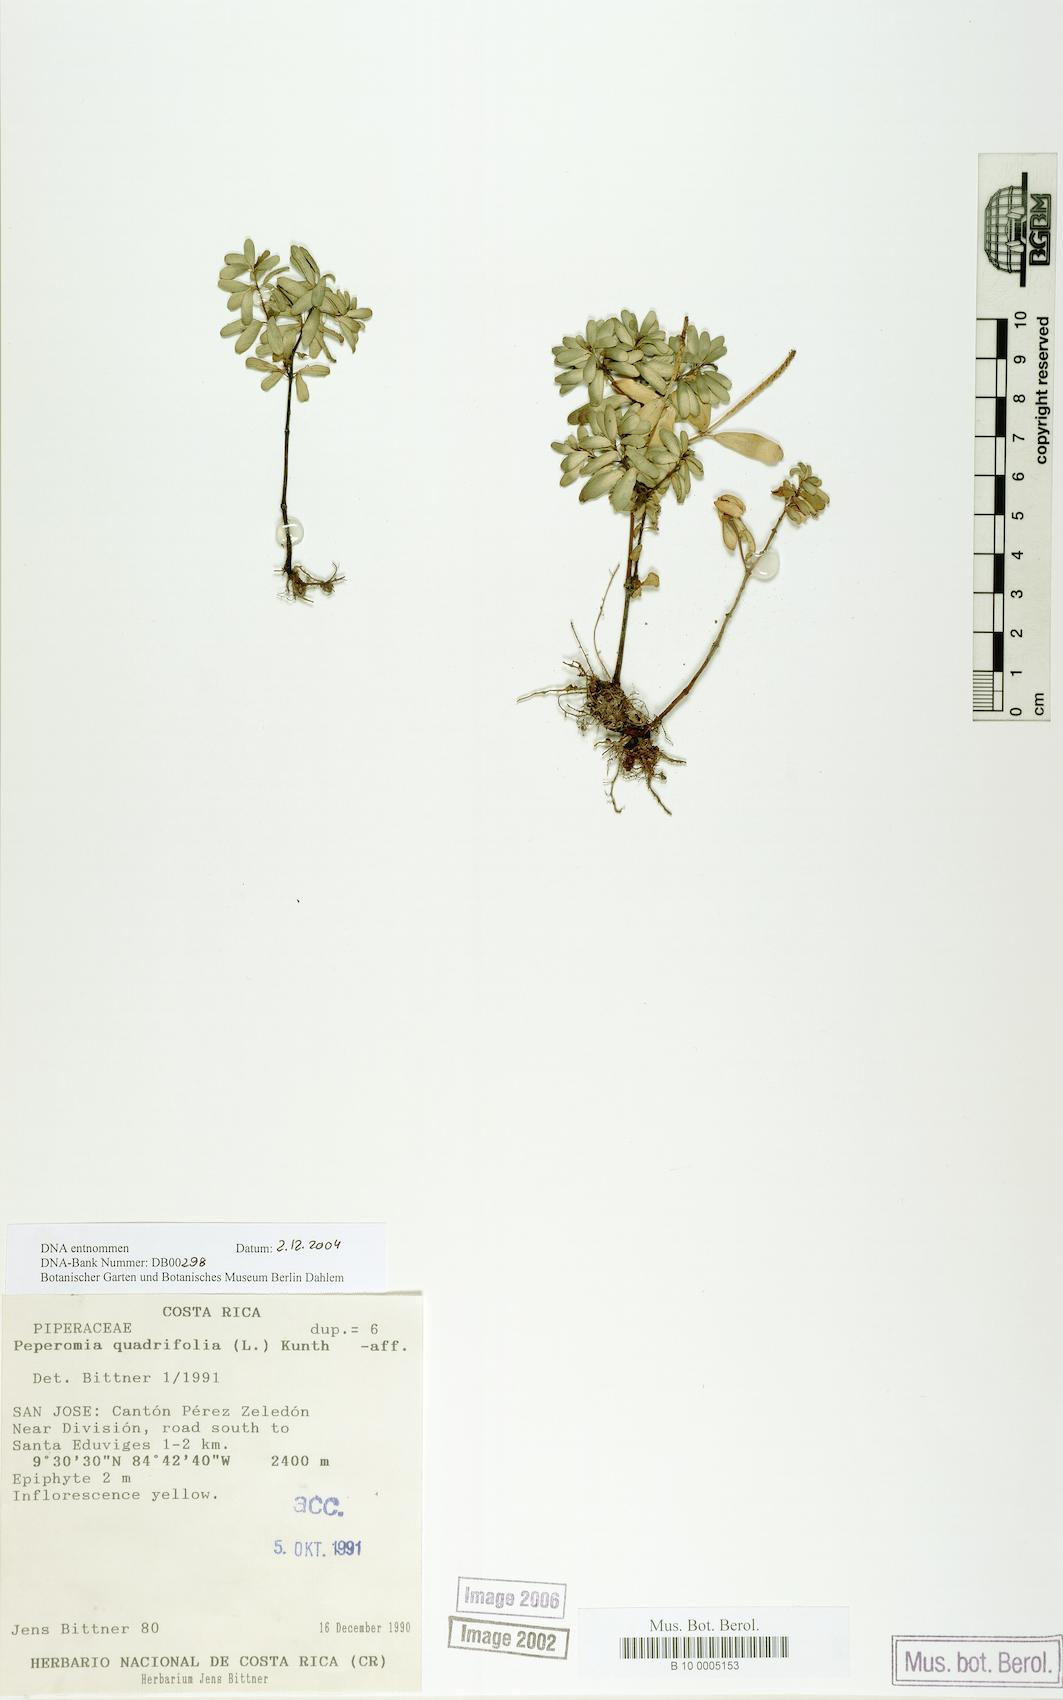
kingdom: Plantae
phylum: Tracheophyta
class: Magnoliopsida
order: Piperales
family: Piperaceae
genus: Peperomia
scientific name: Peperomia quadrifolia
